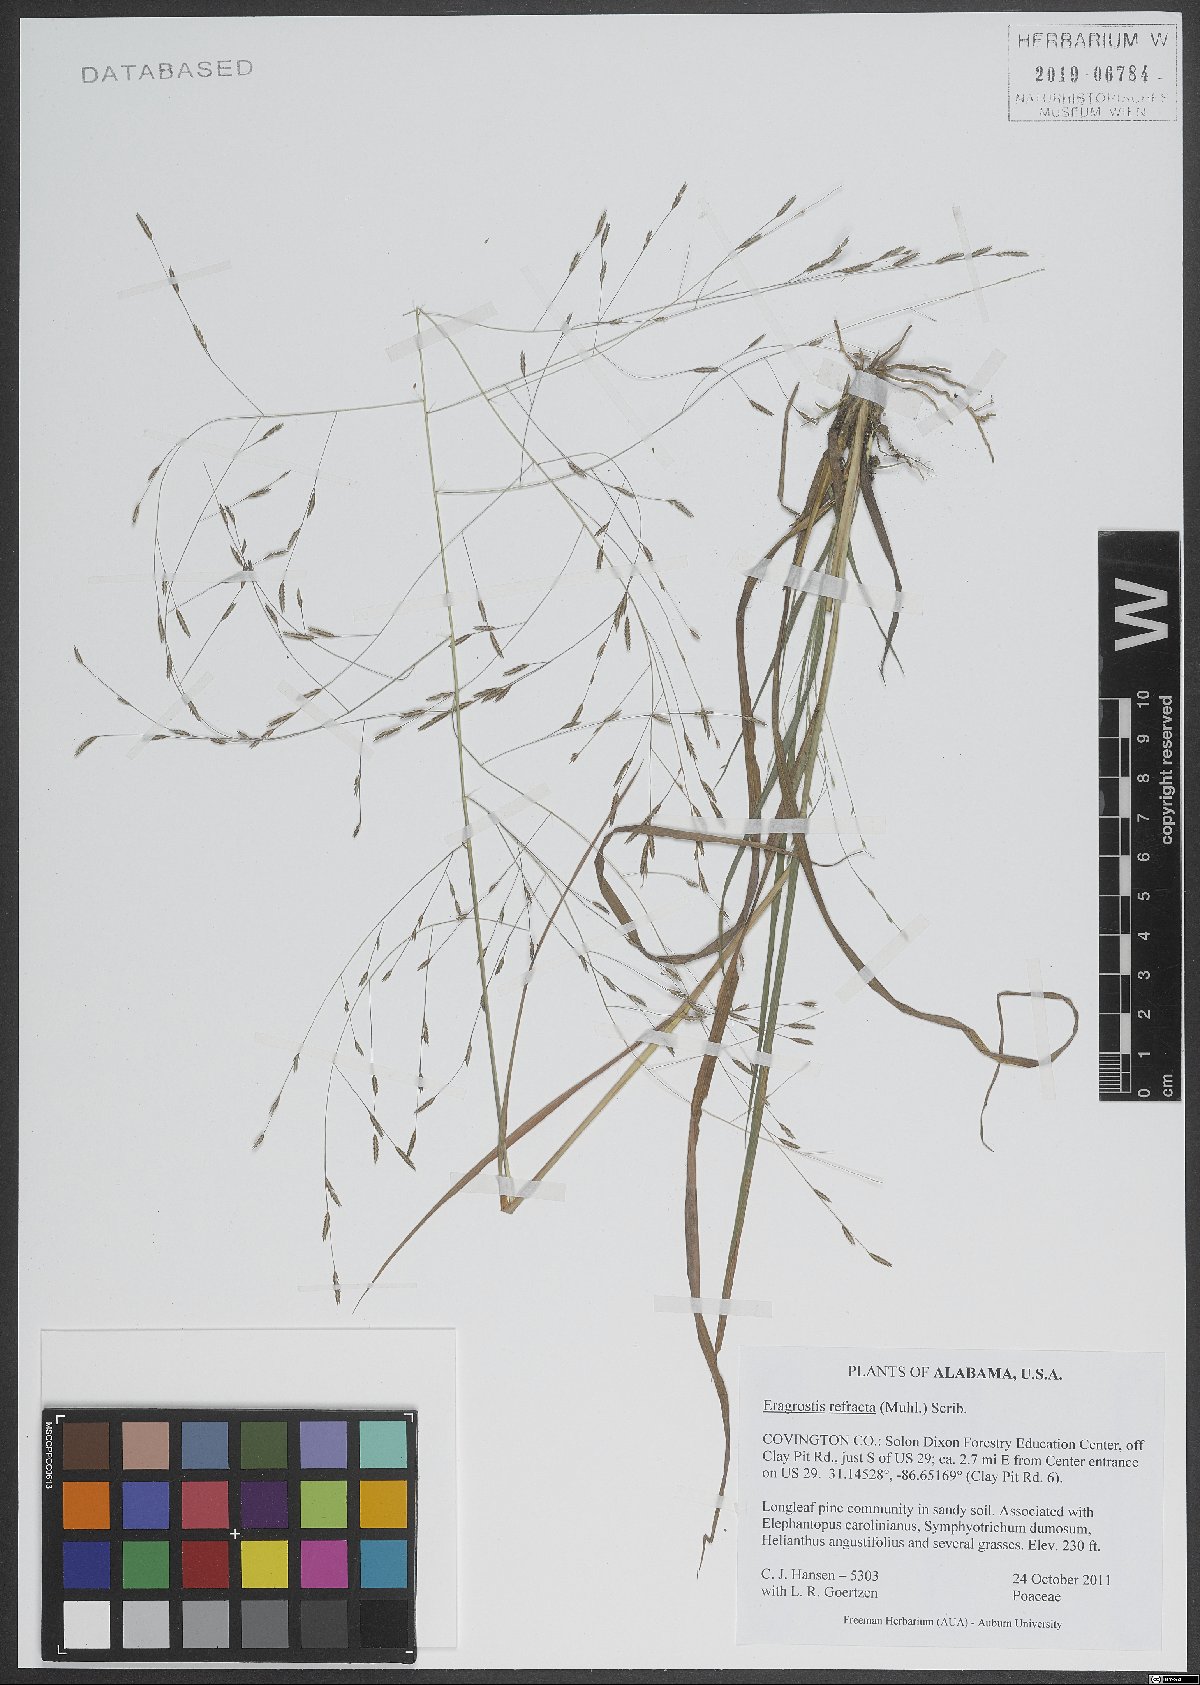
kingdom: Plantae
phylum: Tracheophyta
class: Liliopsida
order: Poales
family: Poaceae
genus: Eragrostis
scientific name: Eragrostis refracta
